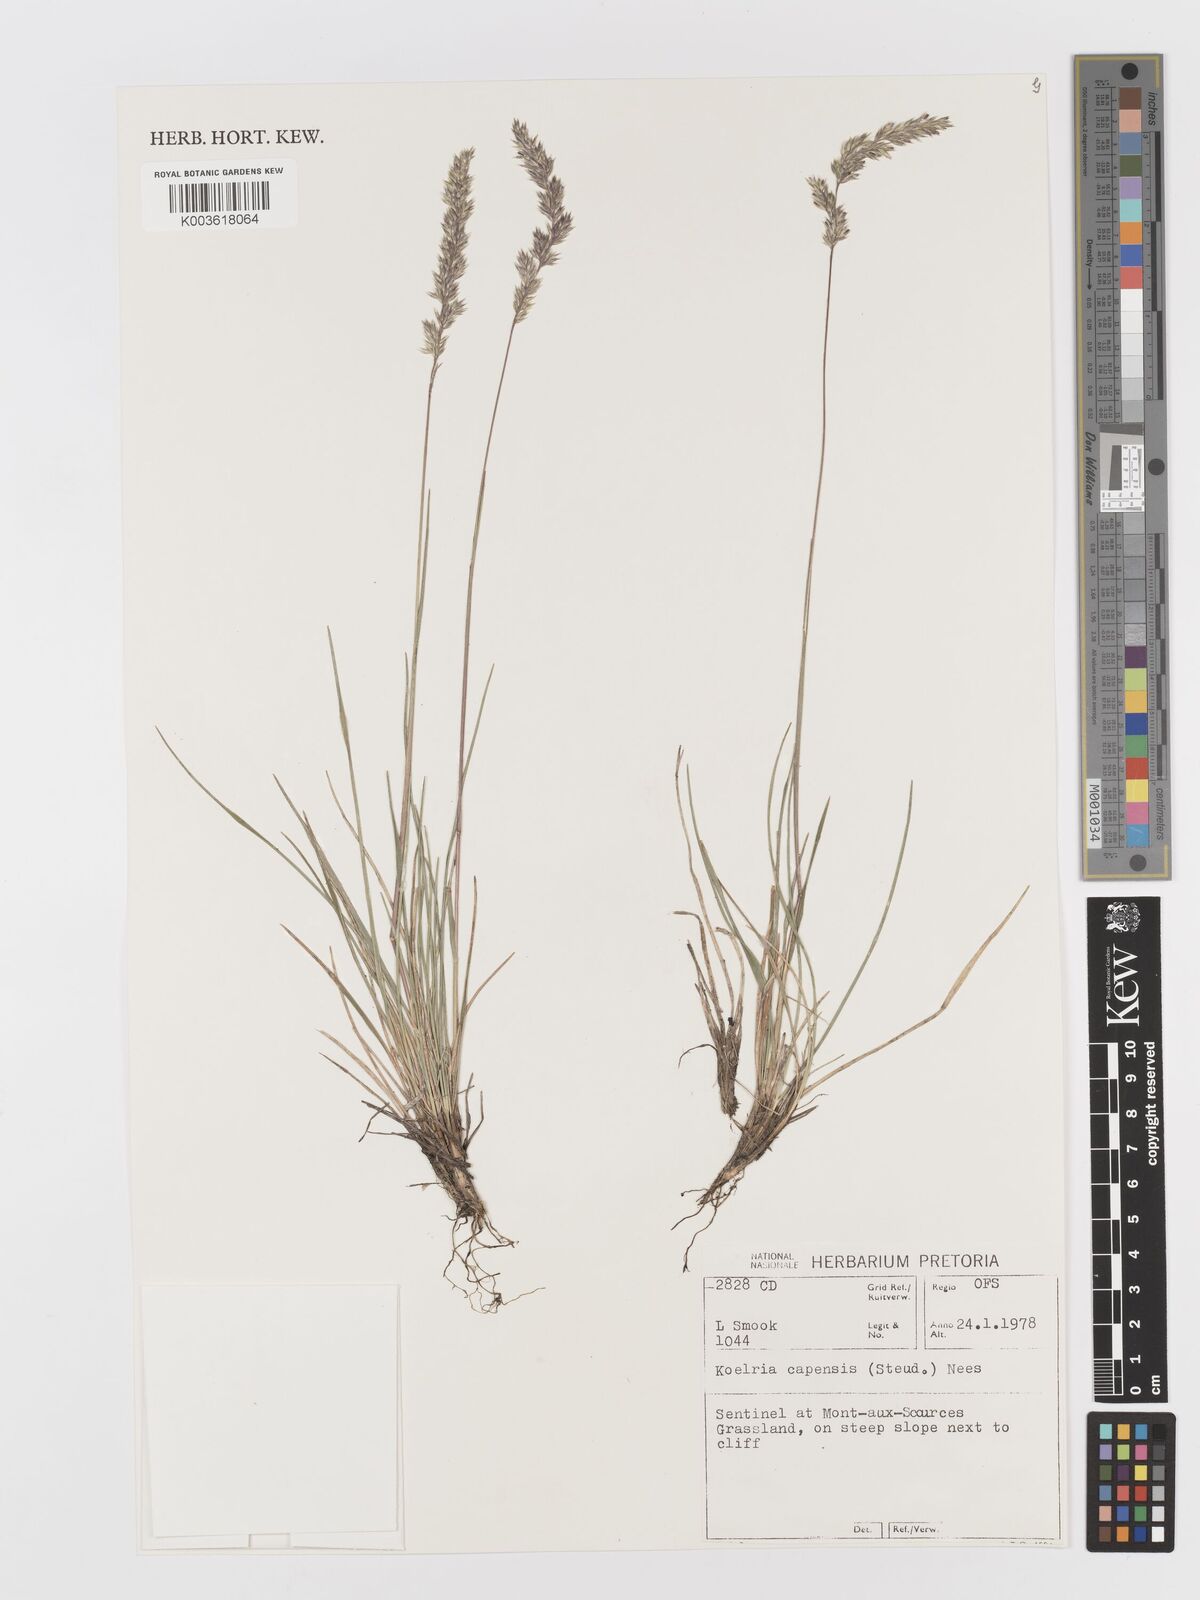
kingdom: Plantae
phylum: Tracheophyta
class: Liliopsida
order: Poales
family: Poaceae
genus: Koeleria
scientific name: Koeleria capensis
